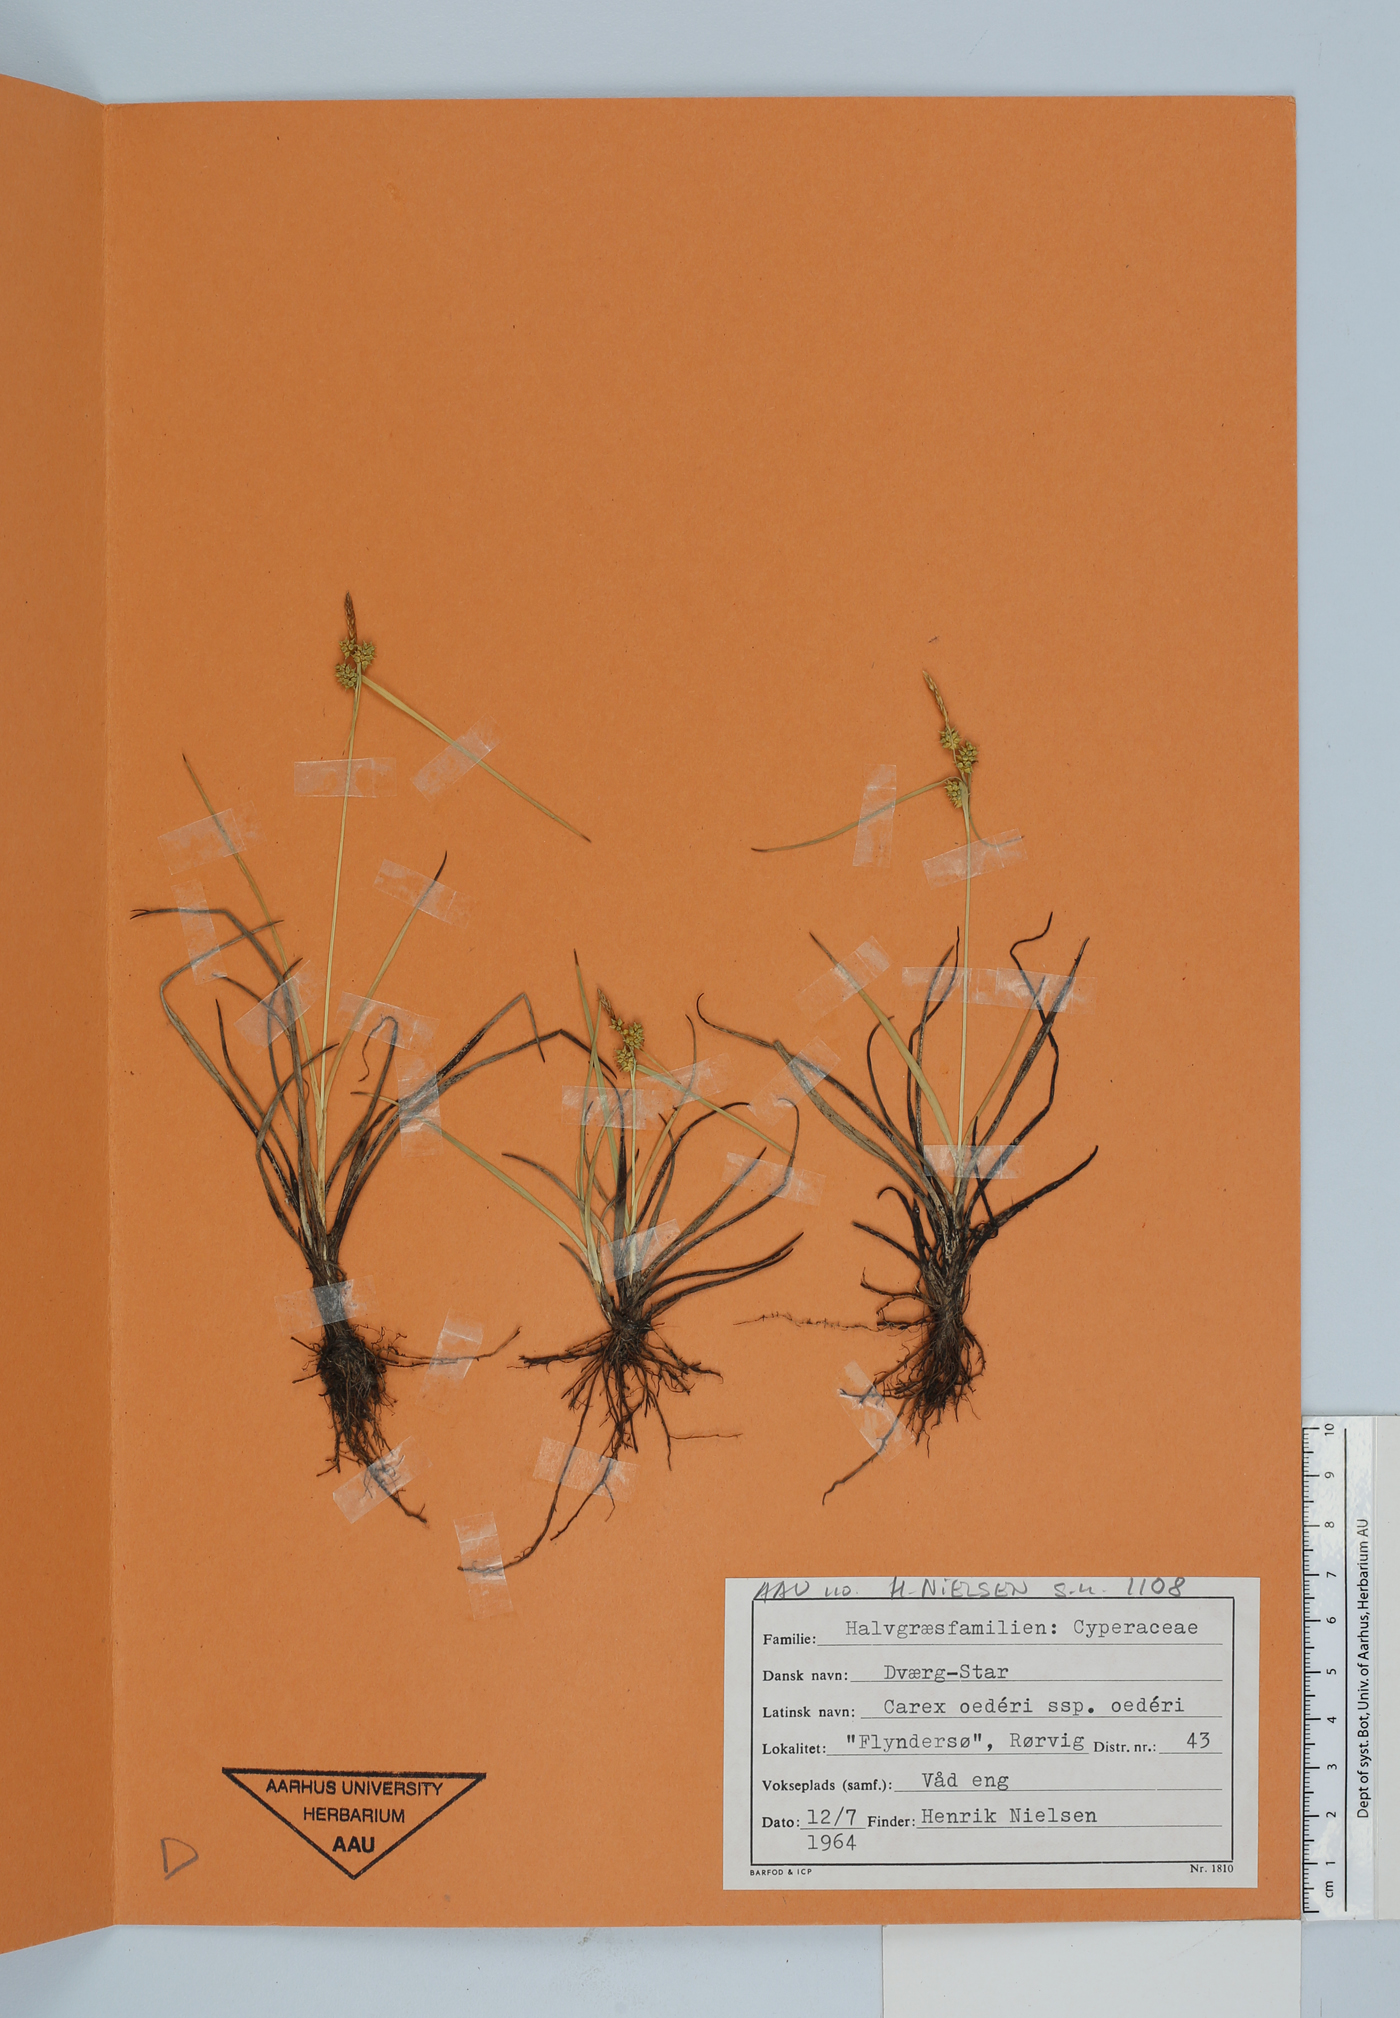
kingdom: Plantae
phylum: Tracheophyta
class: Liliopsida
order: Poales
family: Cyperaceae
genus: Carex
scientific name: Carex oederi
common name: Common & small-fruited yellow-sedge
